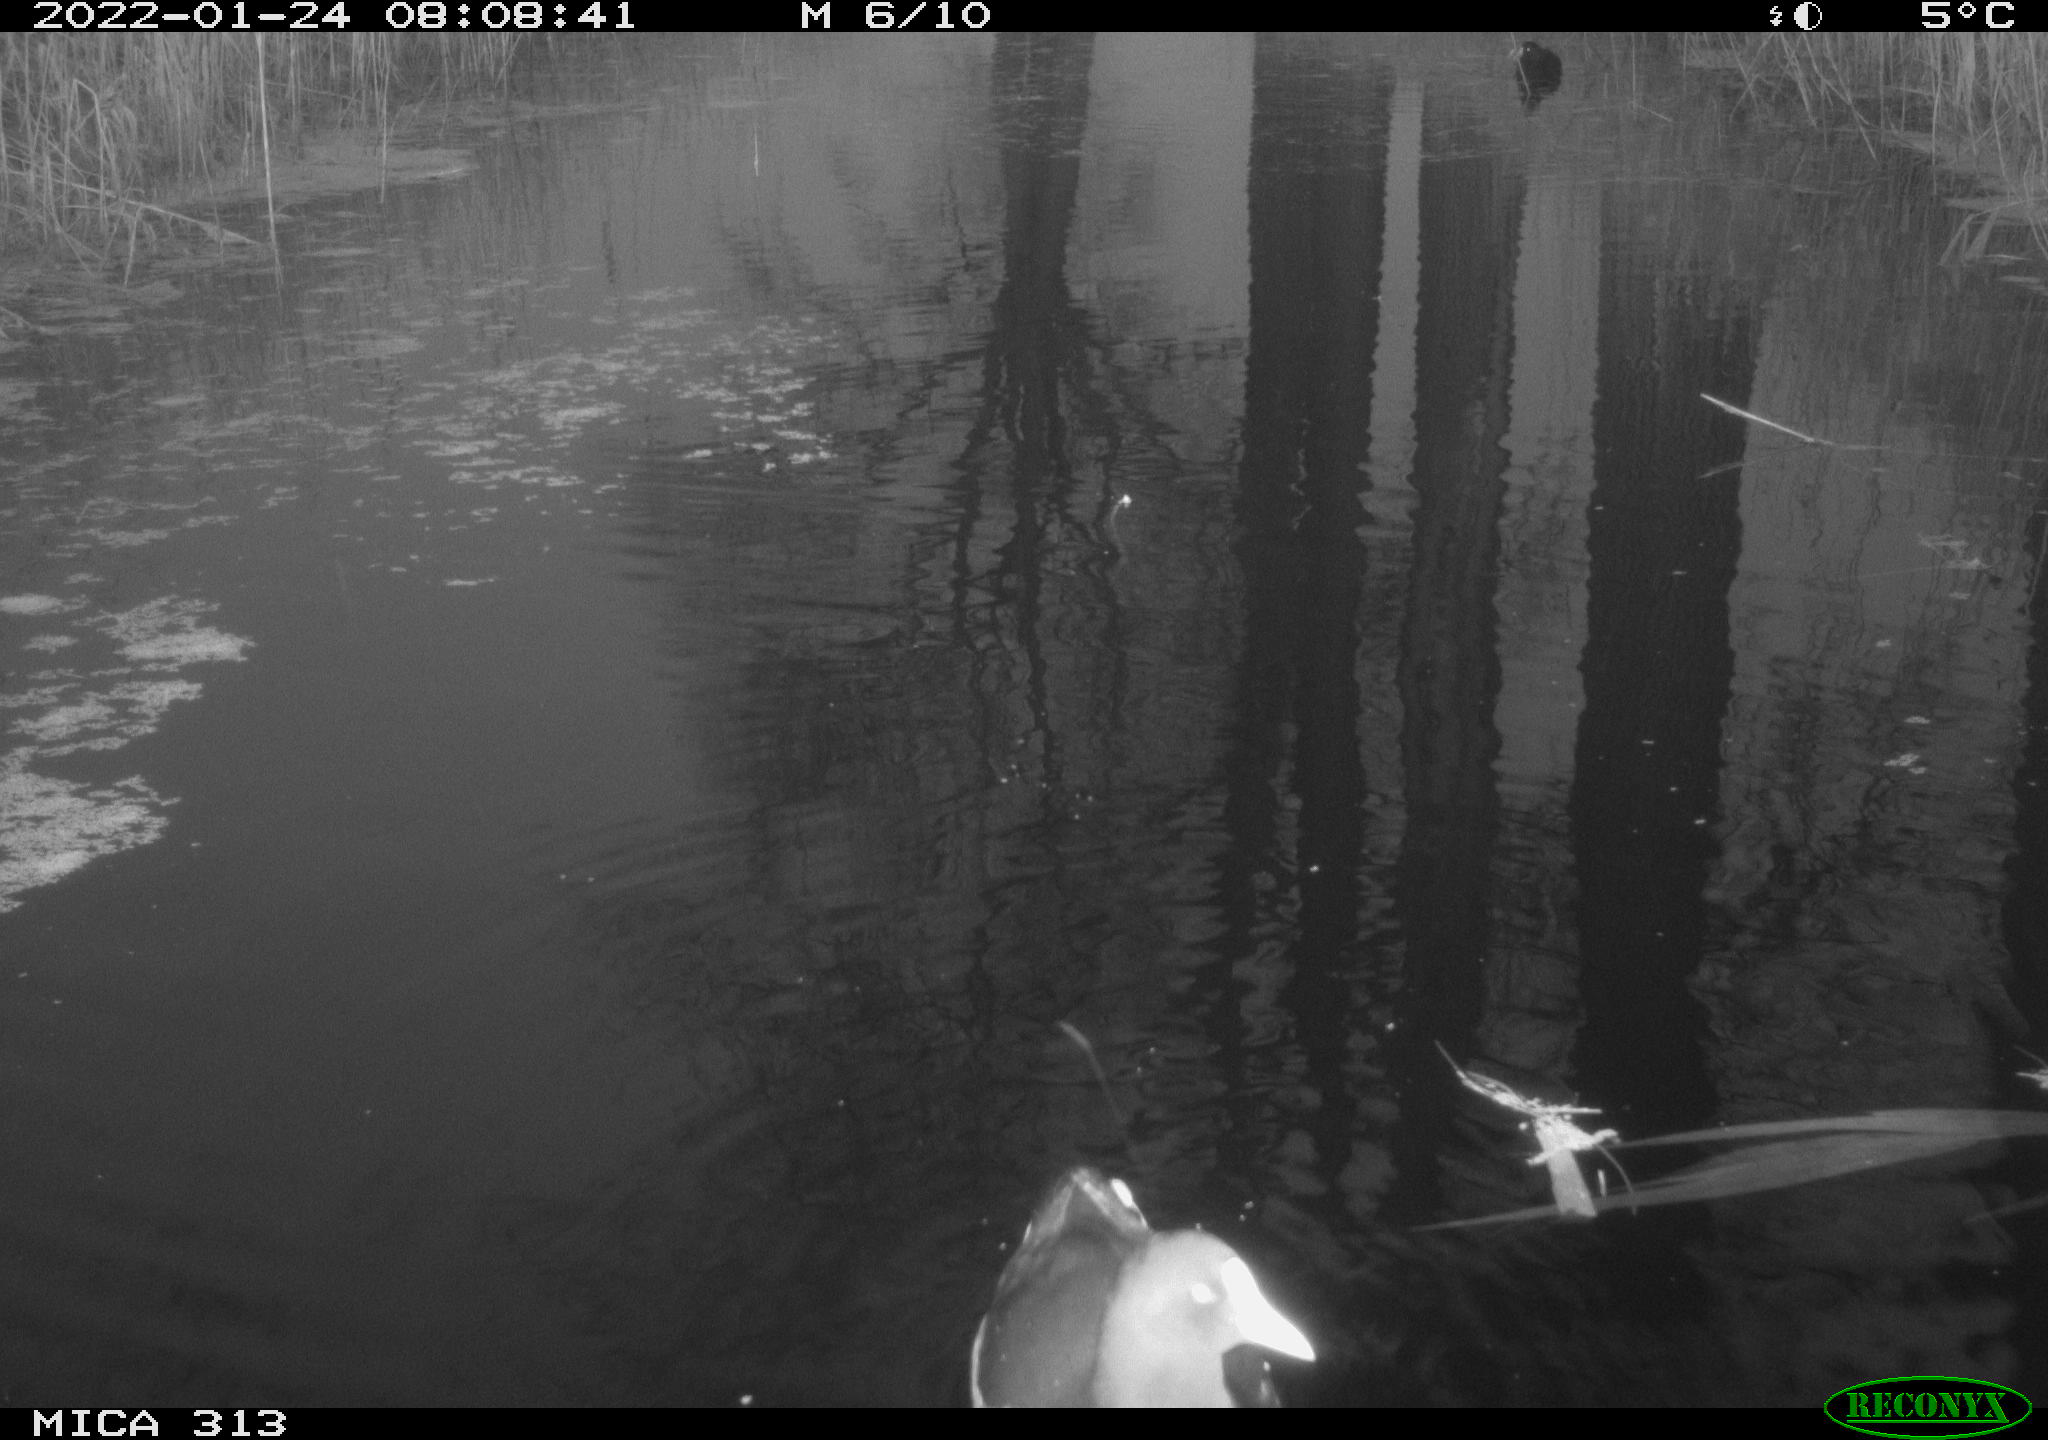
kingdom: Animalia
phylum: Chordata
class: Aves
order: Gruiformes
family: Rallidae
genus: Fulica
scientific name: Fulica atra
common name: Eurasian coot
